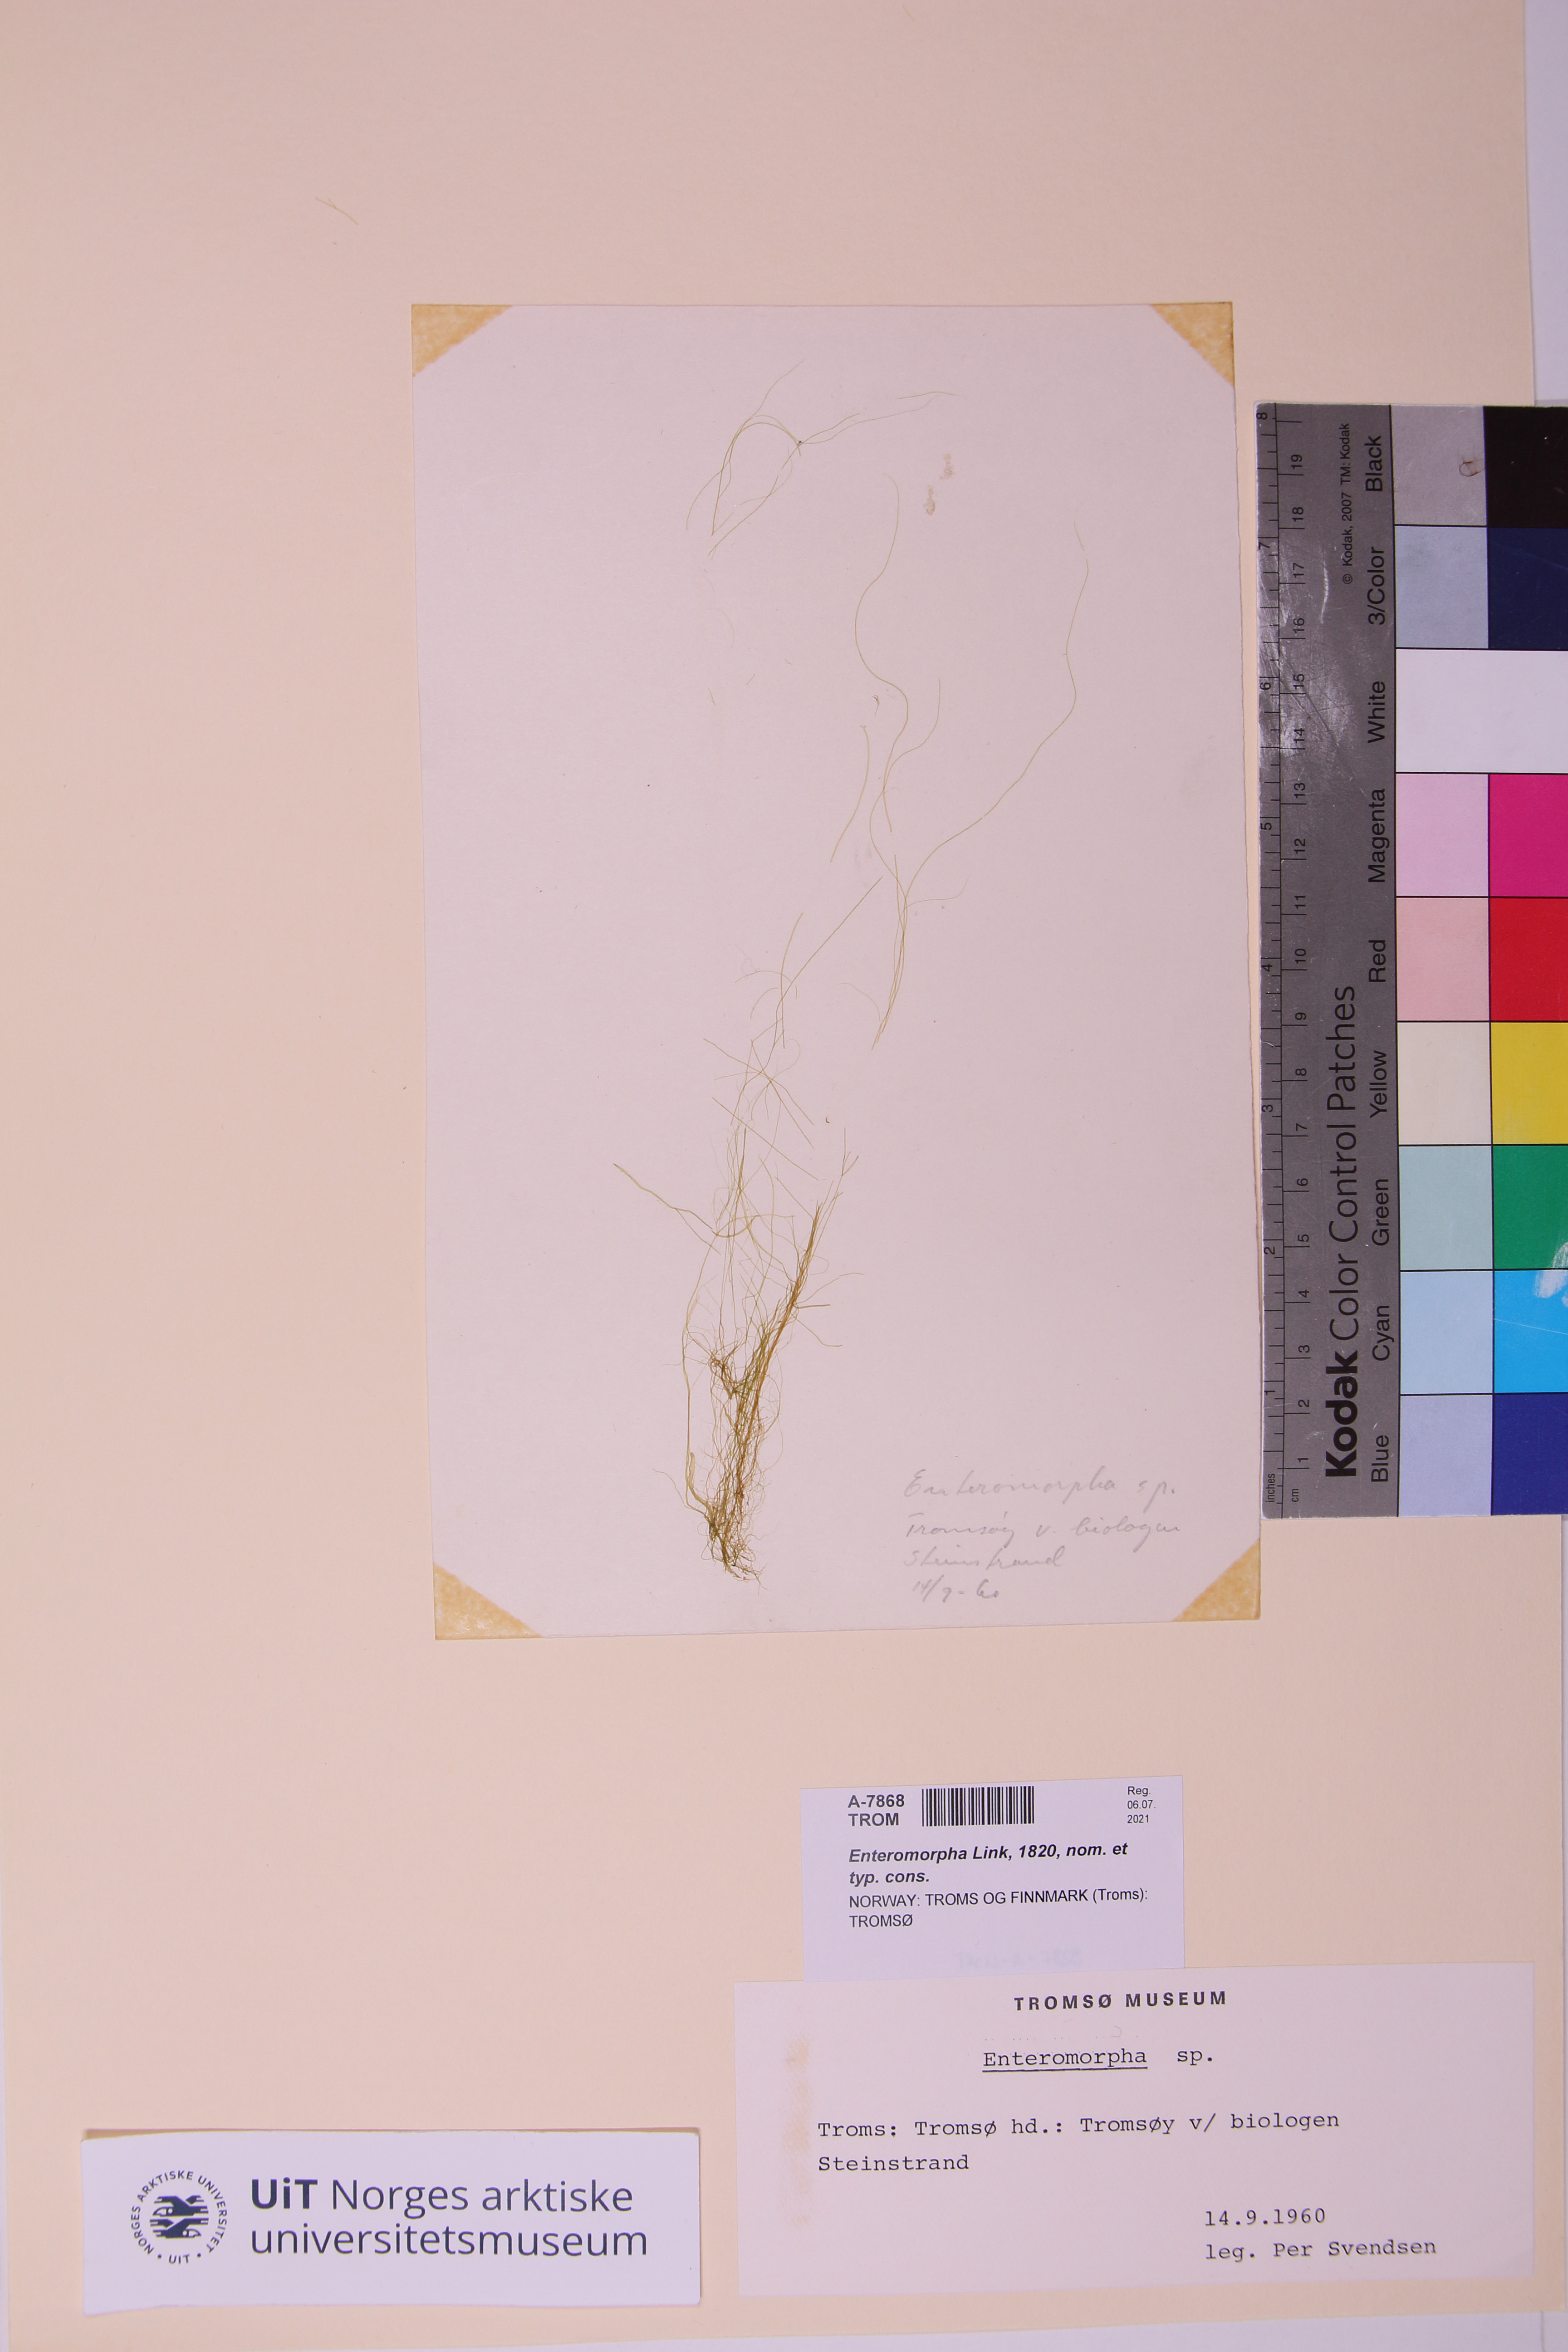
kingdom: Plantae
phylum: Chlorophyta
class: Ulvophyceae
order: Ulvales
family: Ulvaceae
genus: Ulva
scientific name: Ulva
